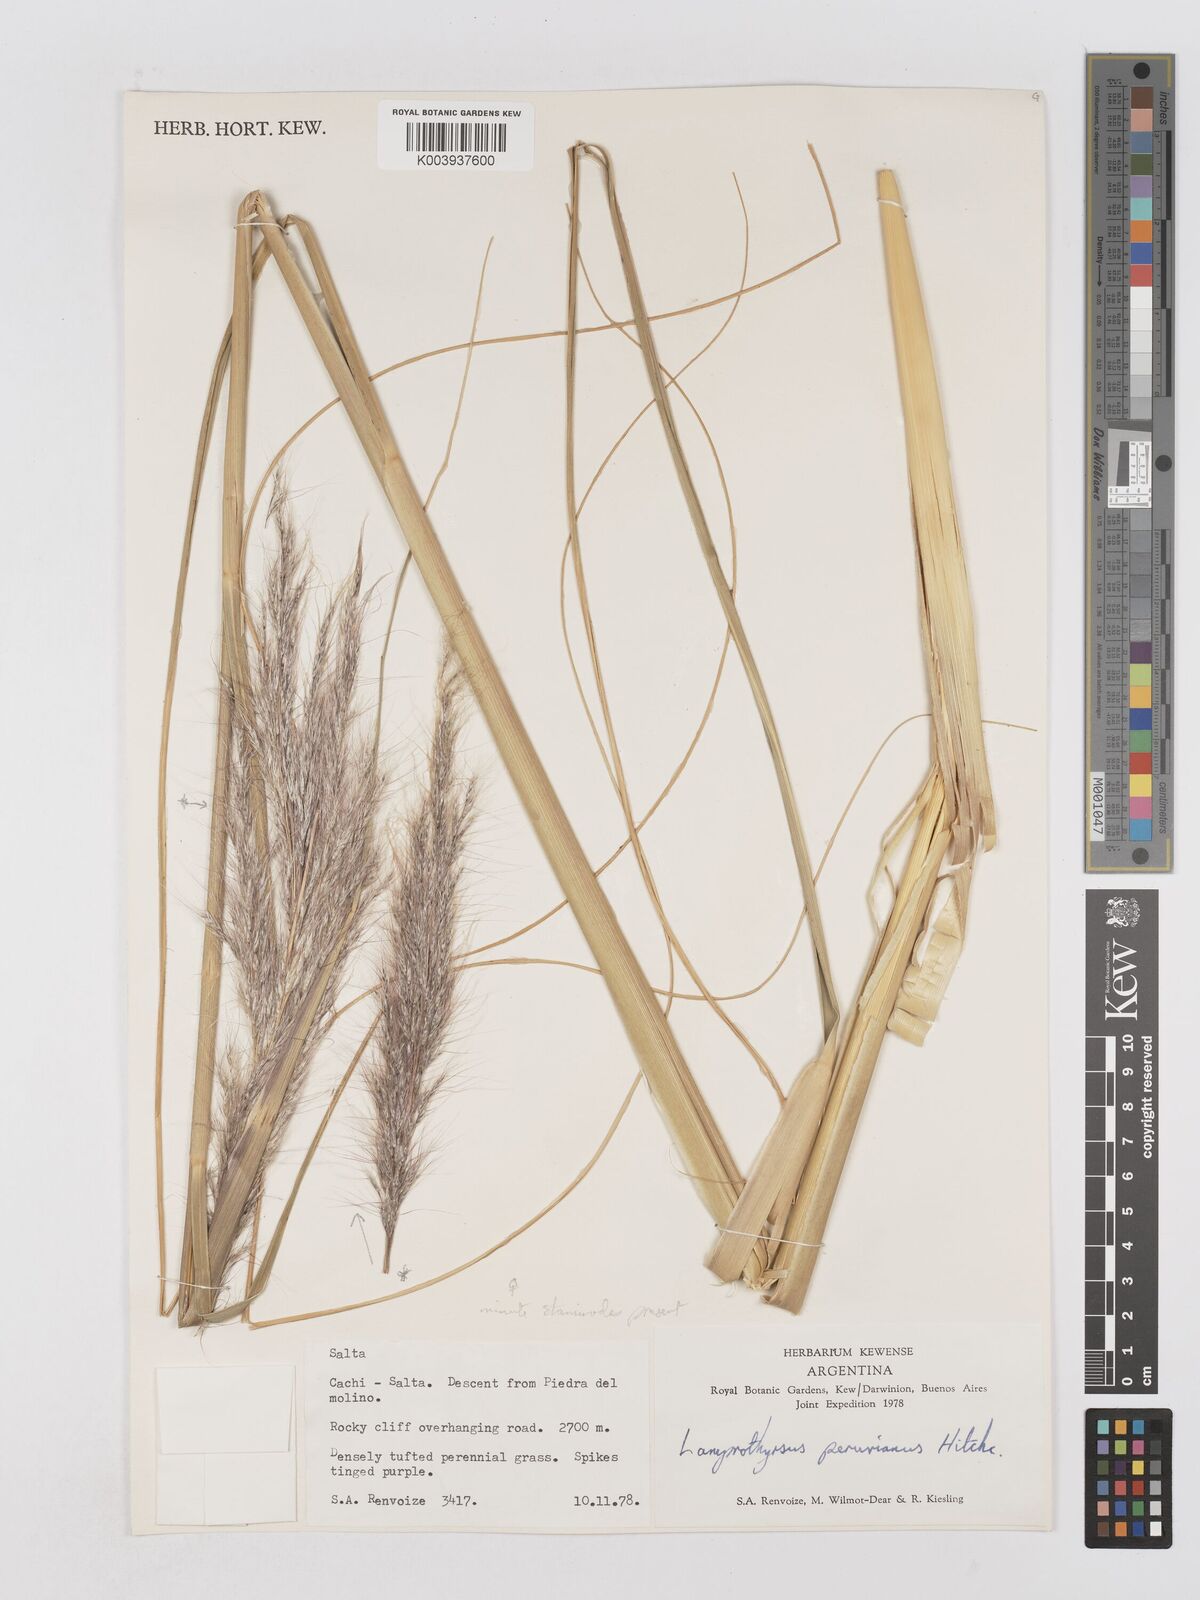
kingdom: Plantae
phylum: Tracheophyta
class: Liliopsida
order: Poales
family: Poaceae
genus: Cortaderia
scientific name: Cortaderia hieronymi
